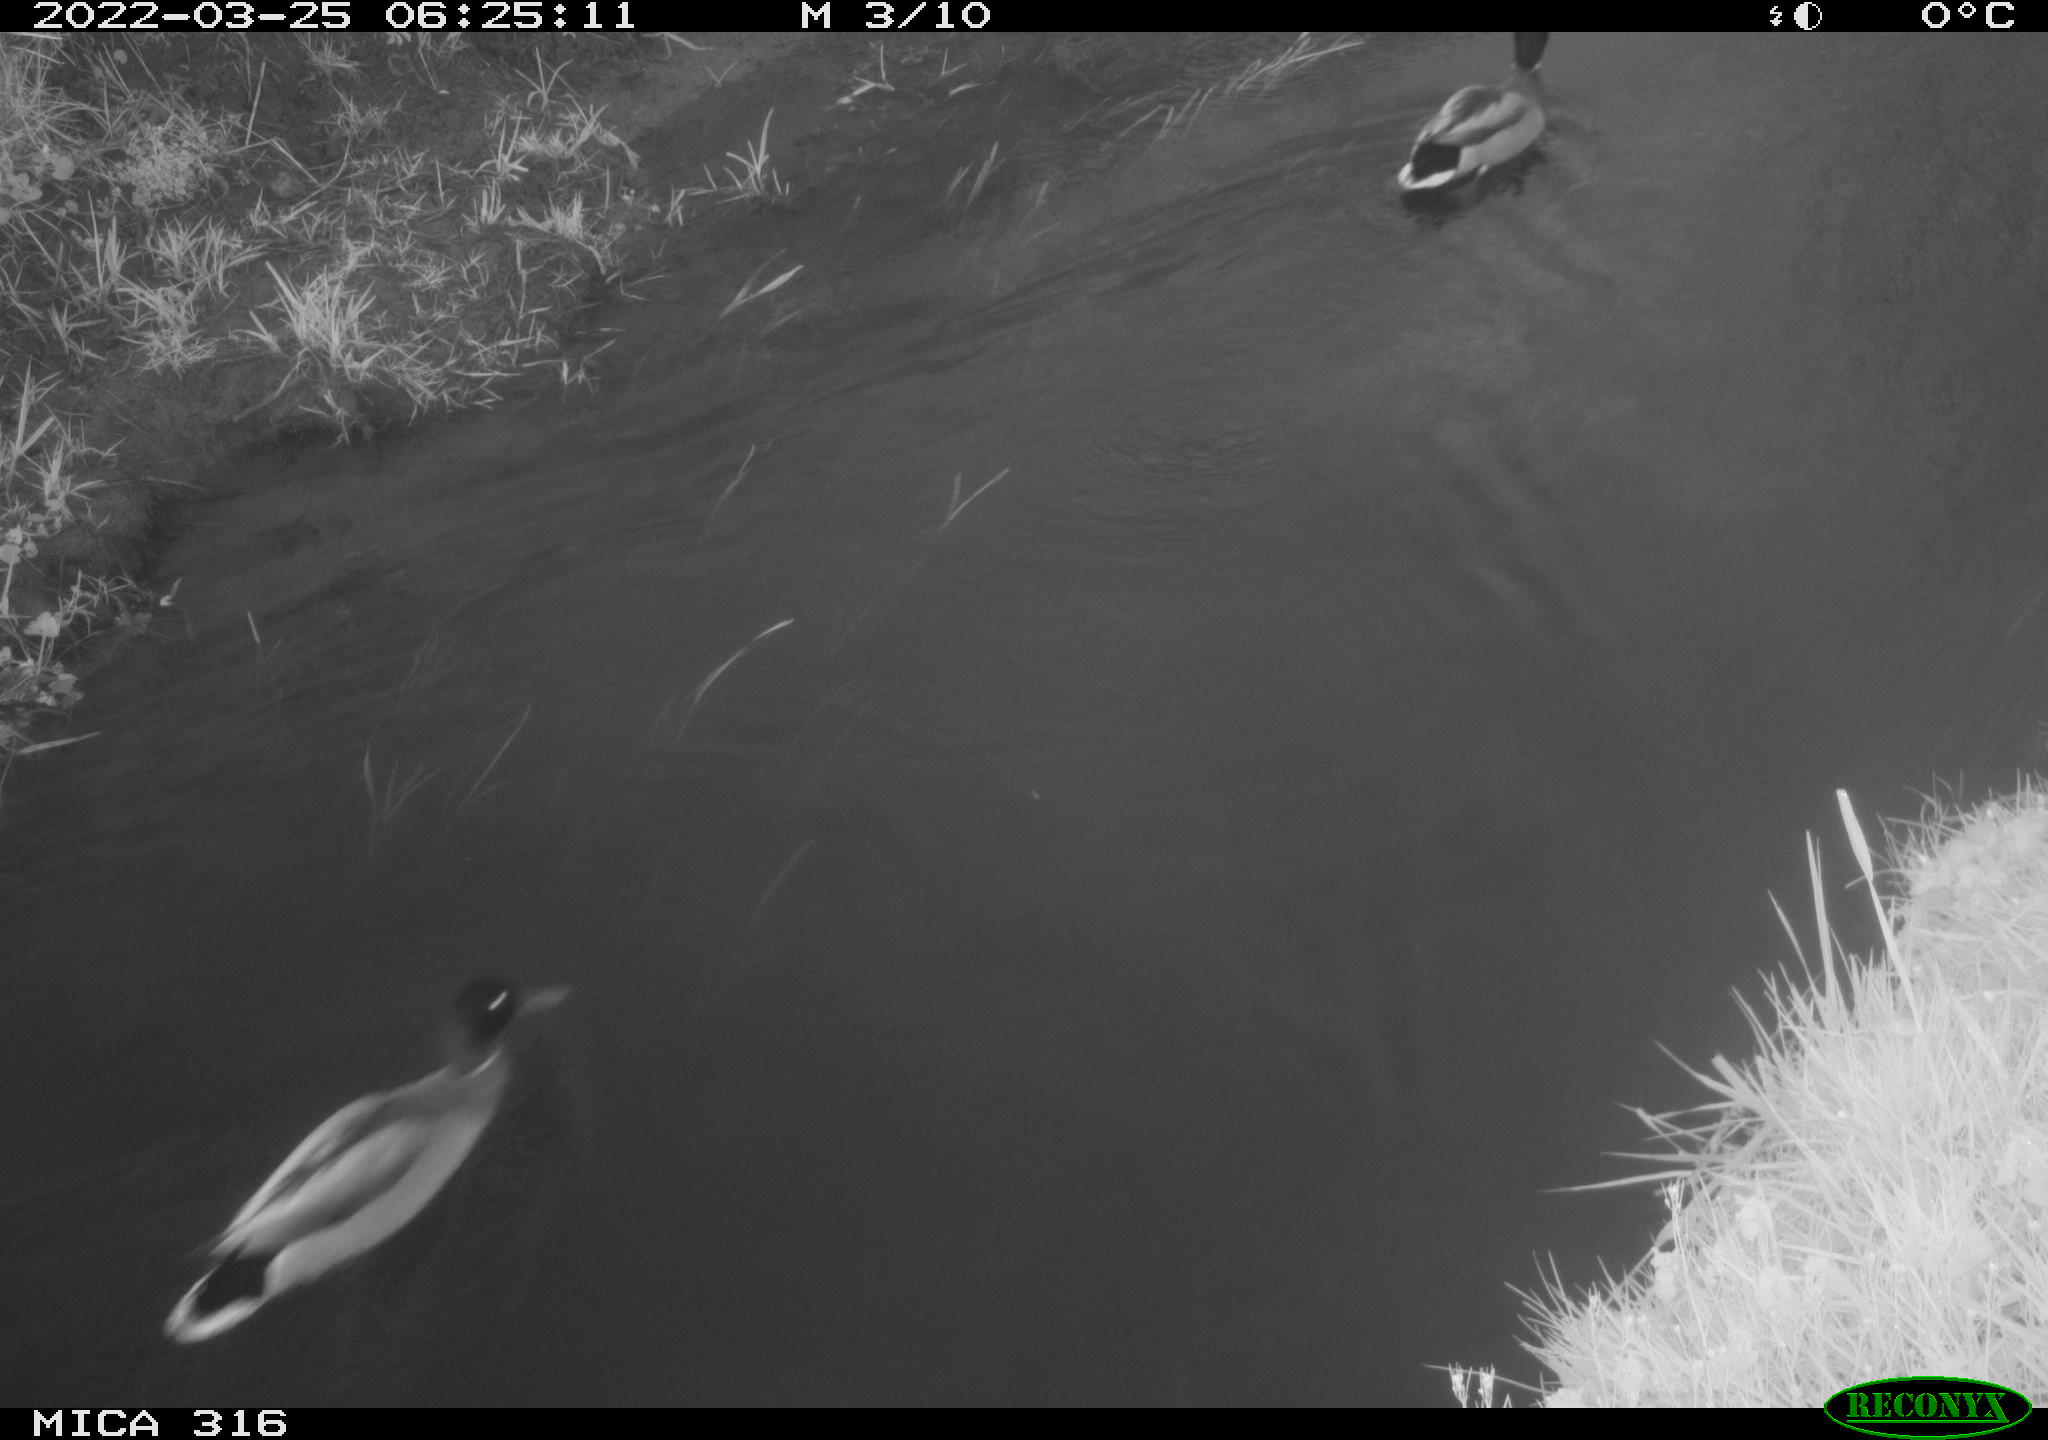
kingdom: Animalia
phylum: Chordata
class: Aves
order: Anseriformes
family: Anatidae
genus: Anas
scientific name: Anas platyrhynchos
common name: Mallard
